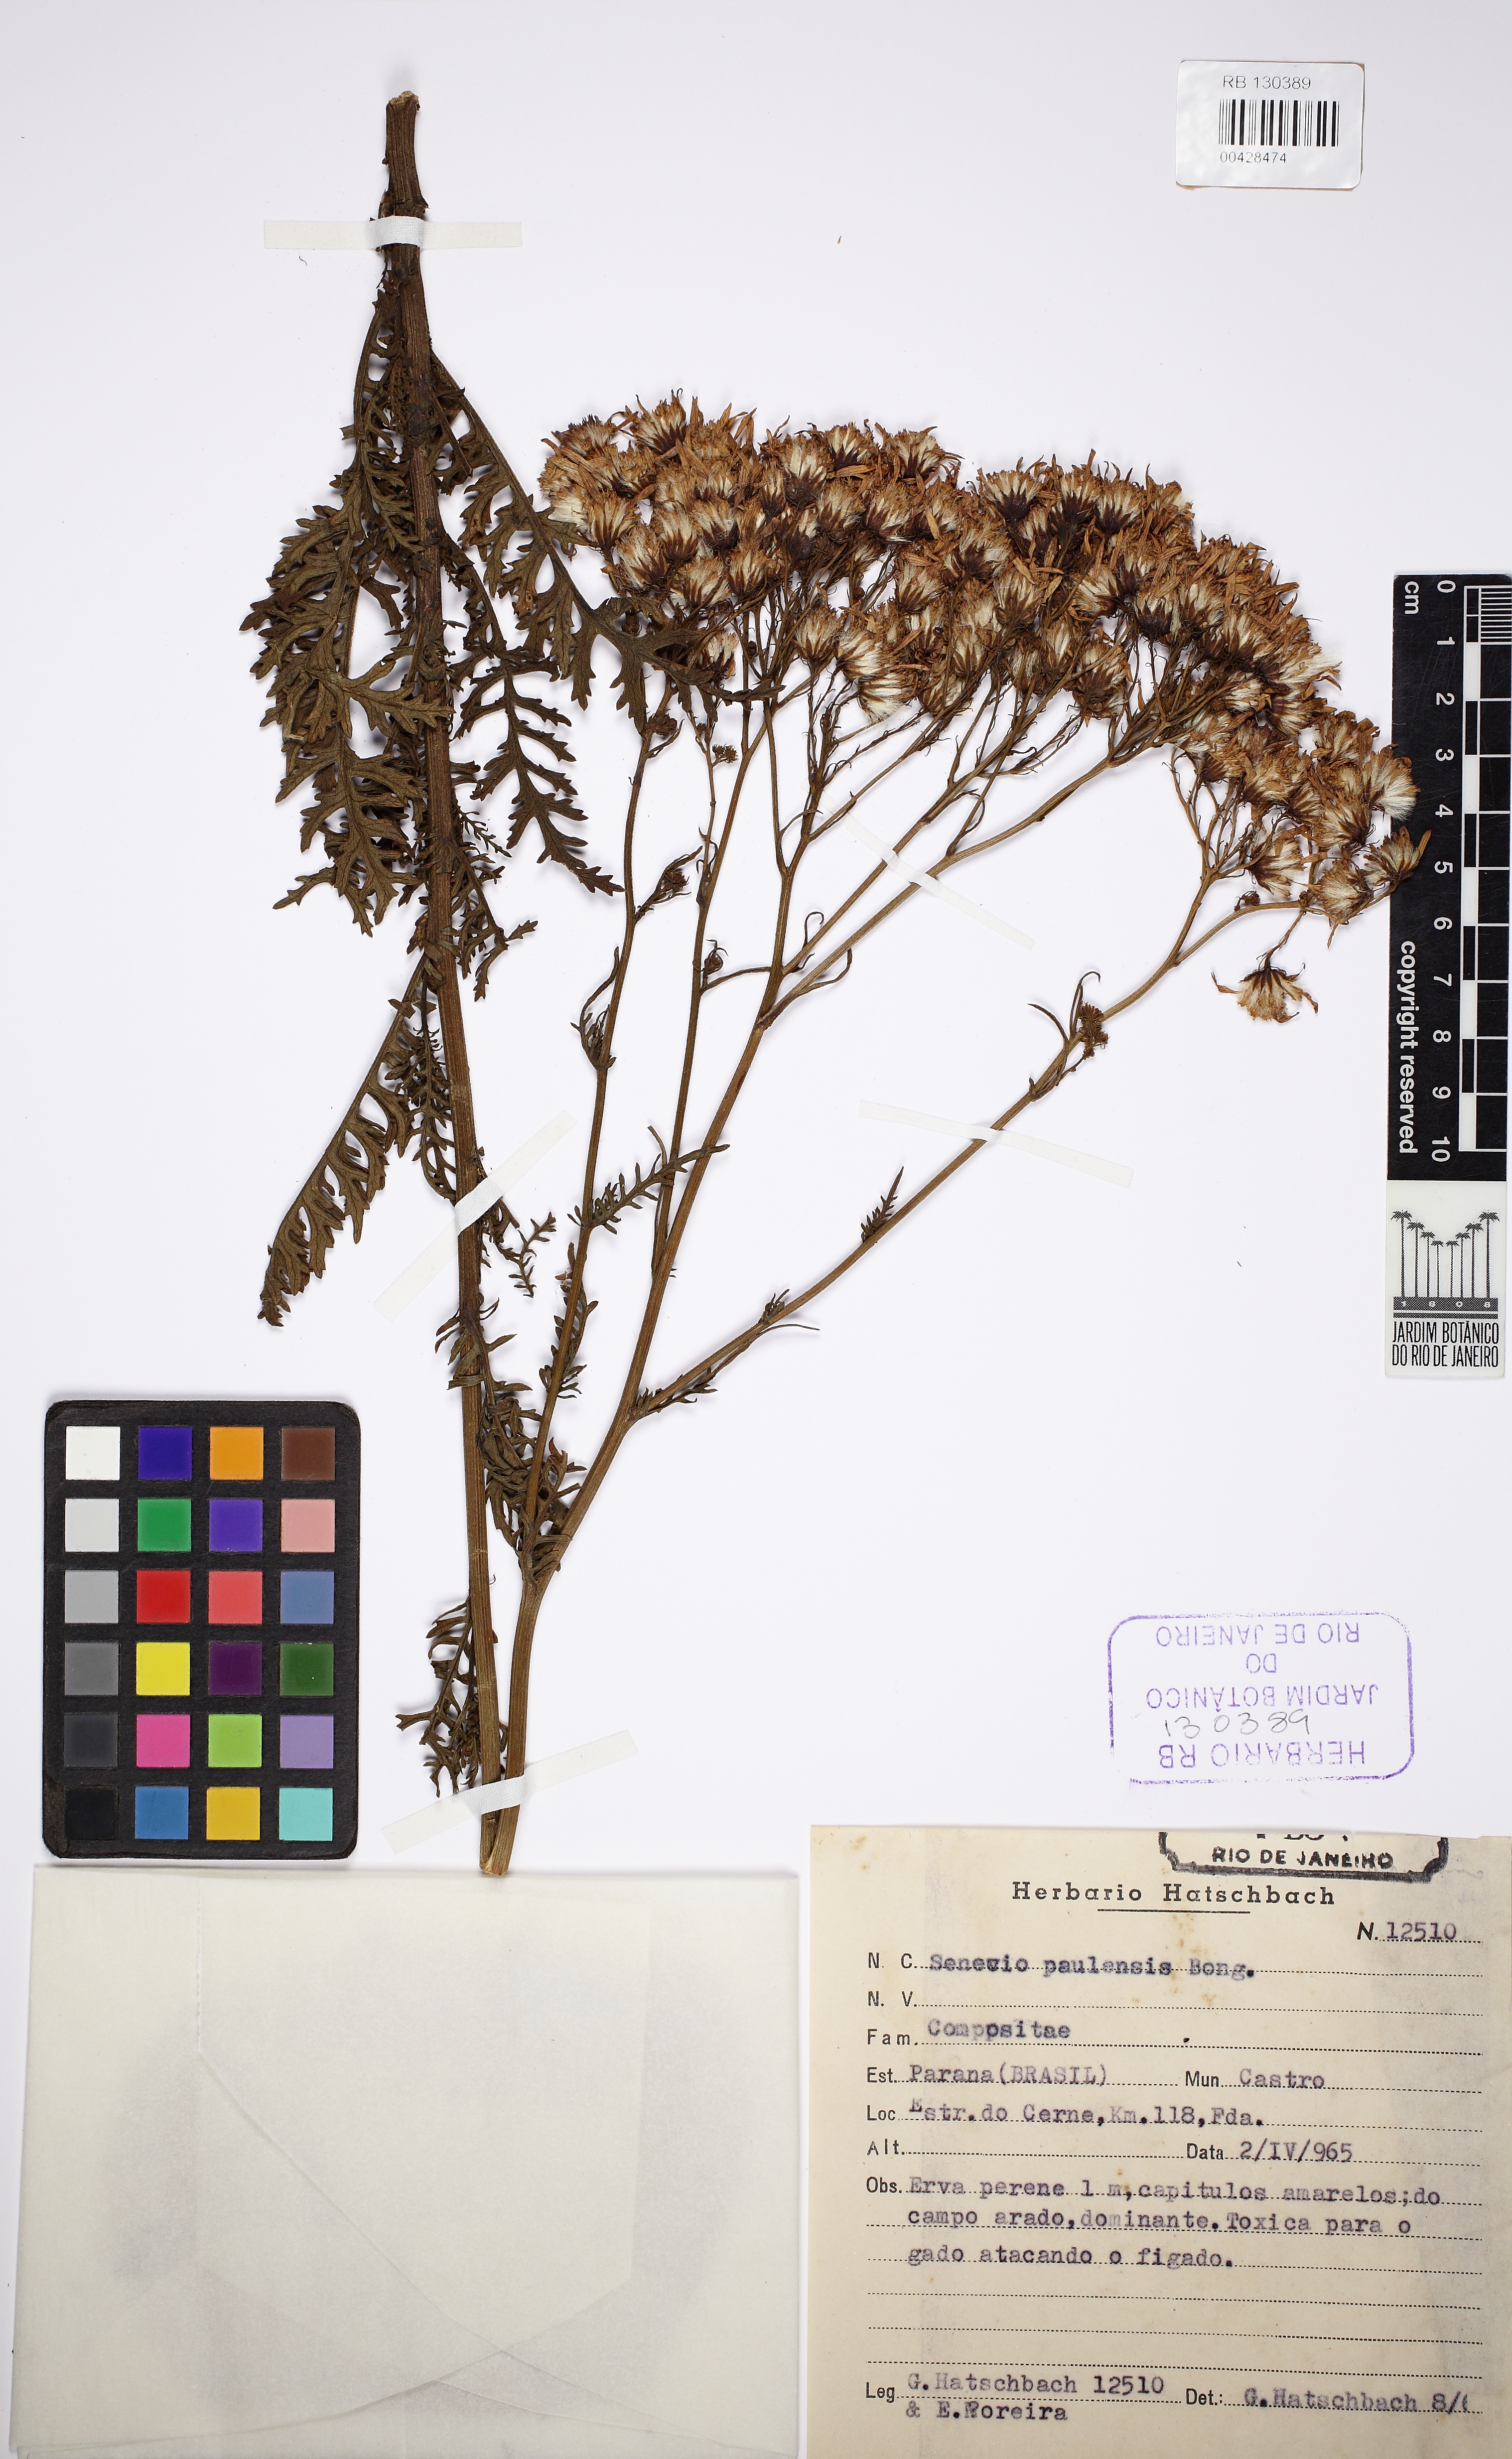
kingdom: Plantae
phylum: Tracheophyta
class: Magnoliopsida
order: Asterales
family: Asteraceae
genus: Jacobaea
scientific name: Jacobaea paludosa
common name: Fen ragwort
